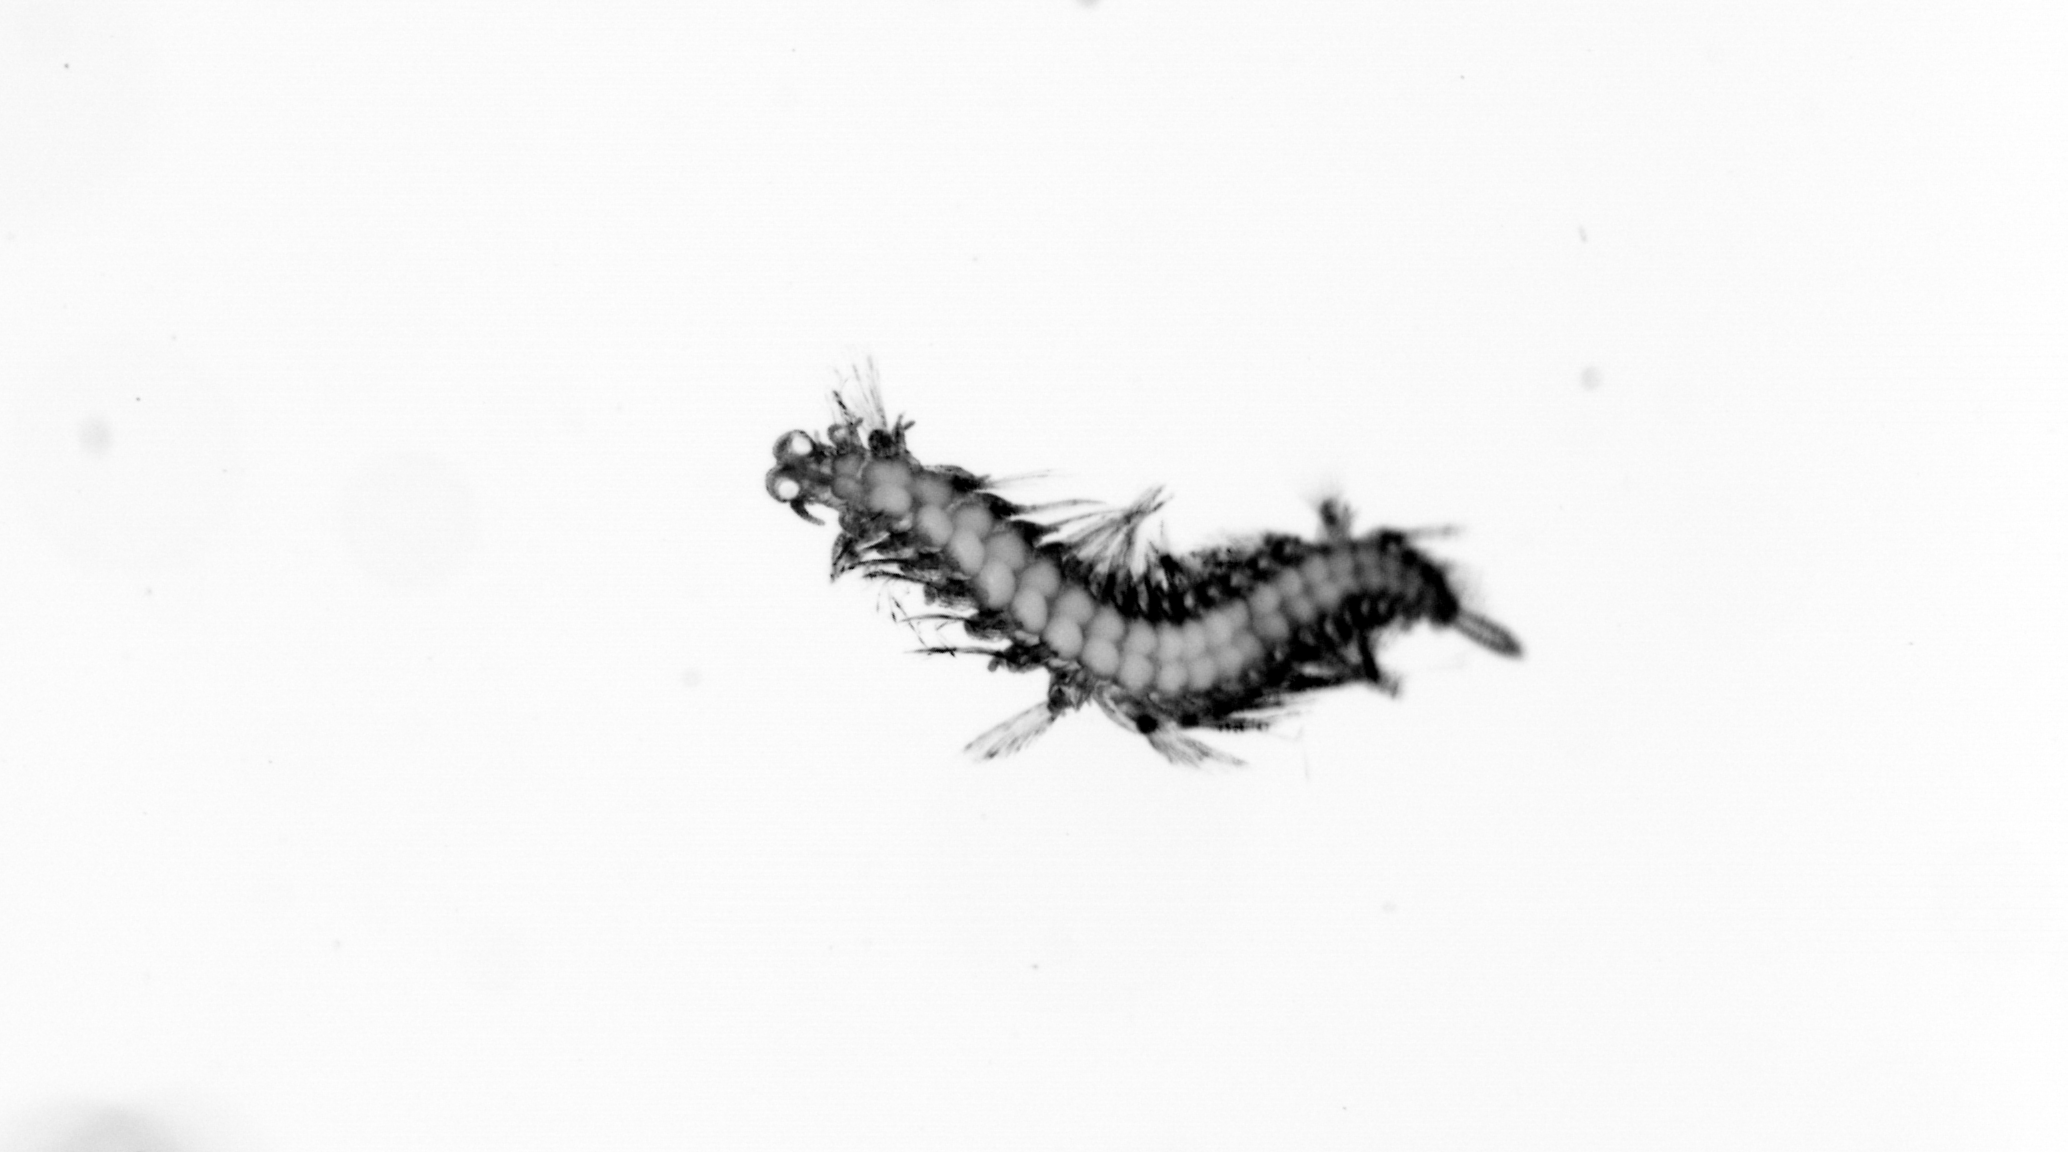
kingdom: Animalia
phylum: Annelida
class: Polychaeta
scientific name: Polychaeta
